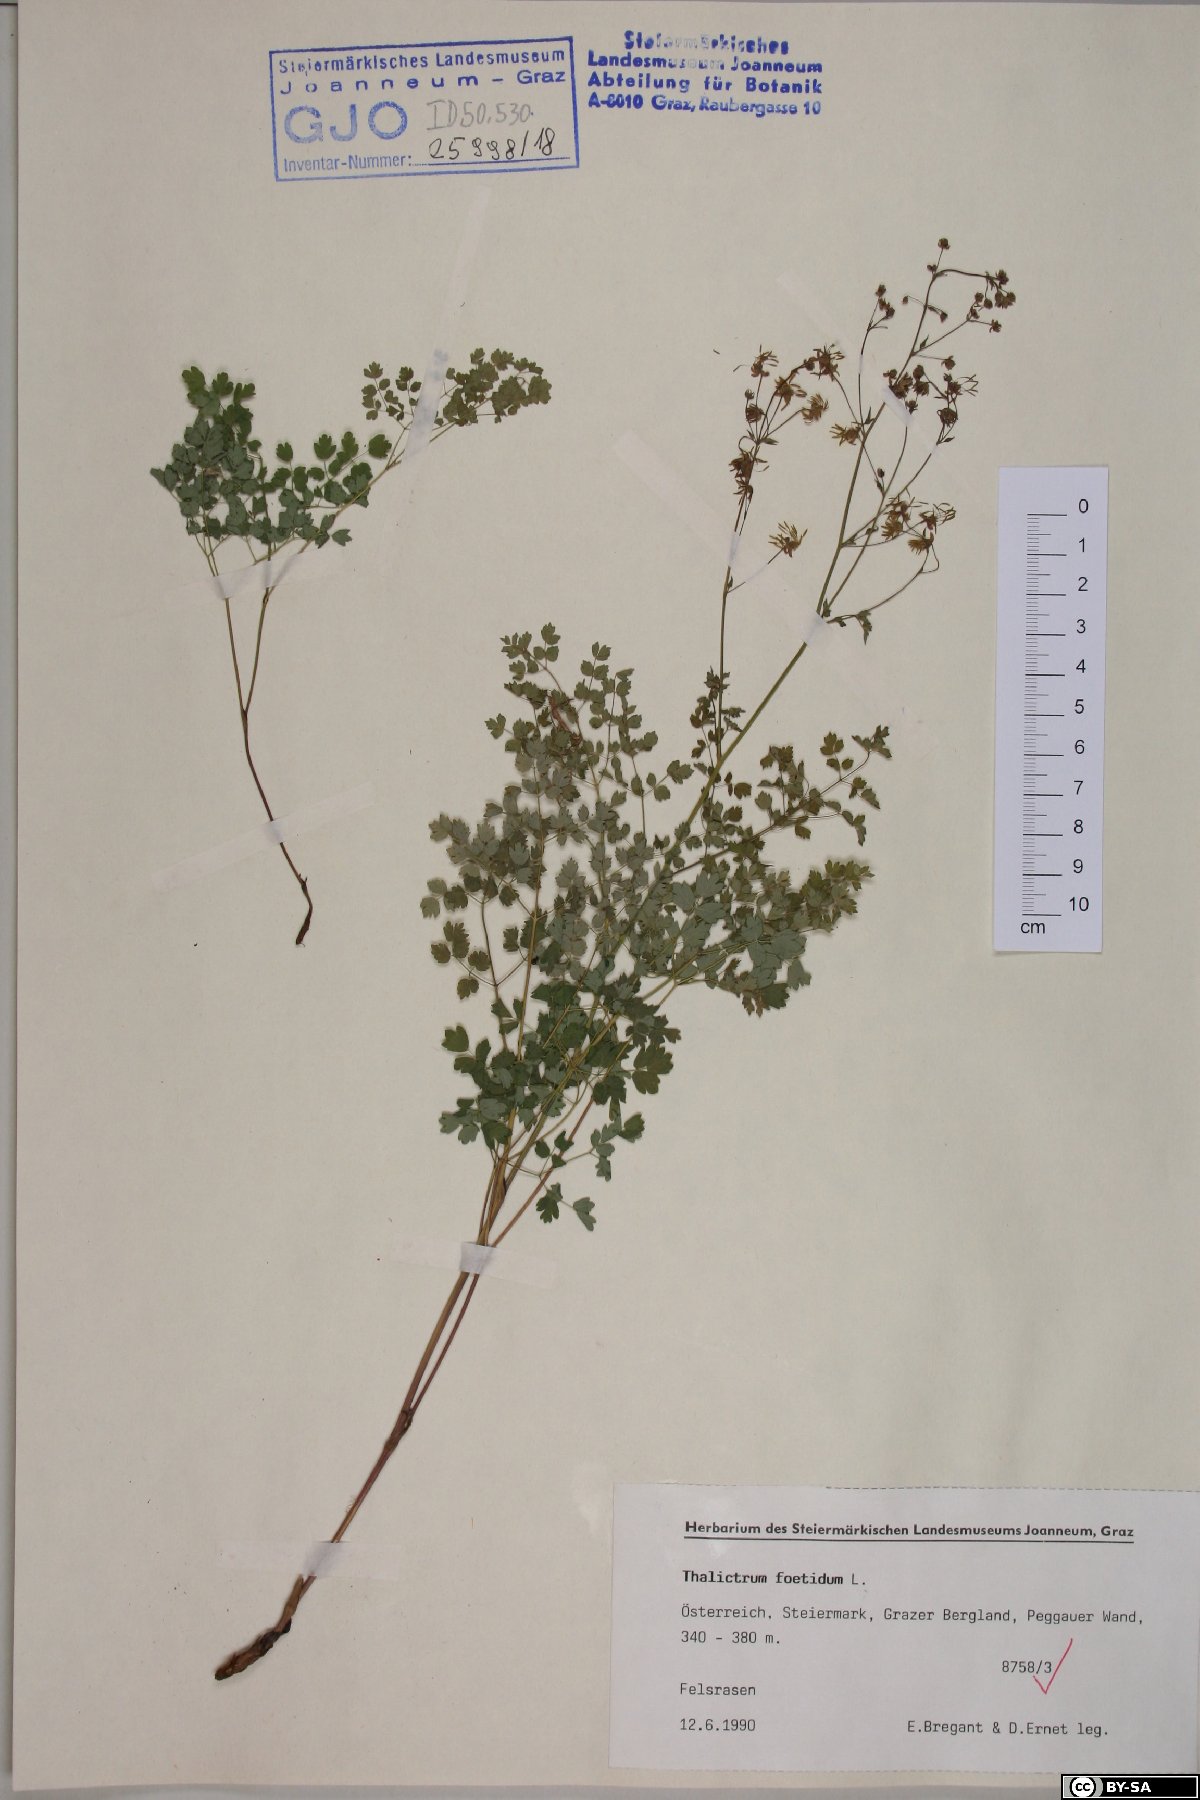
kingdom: Plantae
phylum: Tracheophyta
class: Magnoliopsida
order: Ranunculales
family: Ranunculaceae
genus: Thalictrum
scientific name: Thalictrum foetidum
